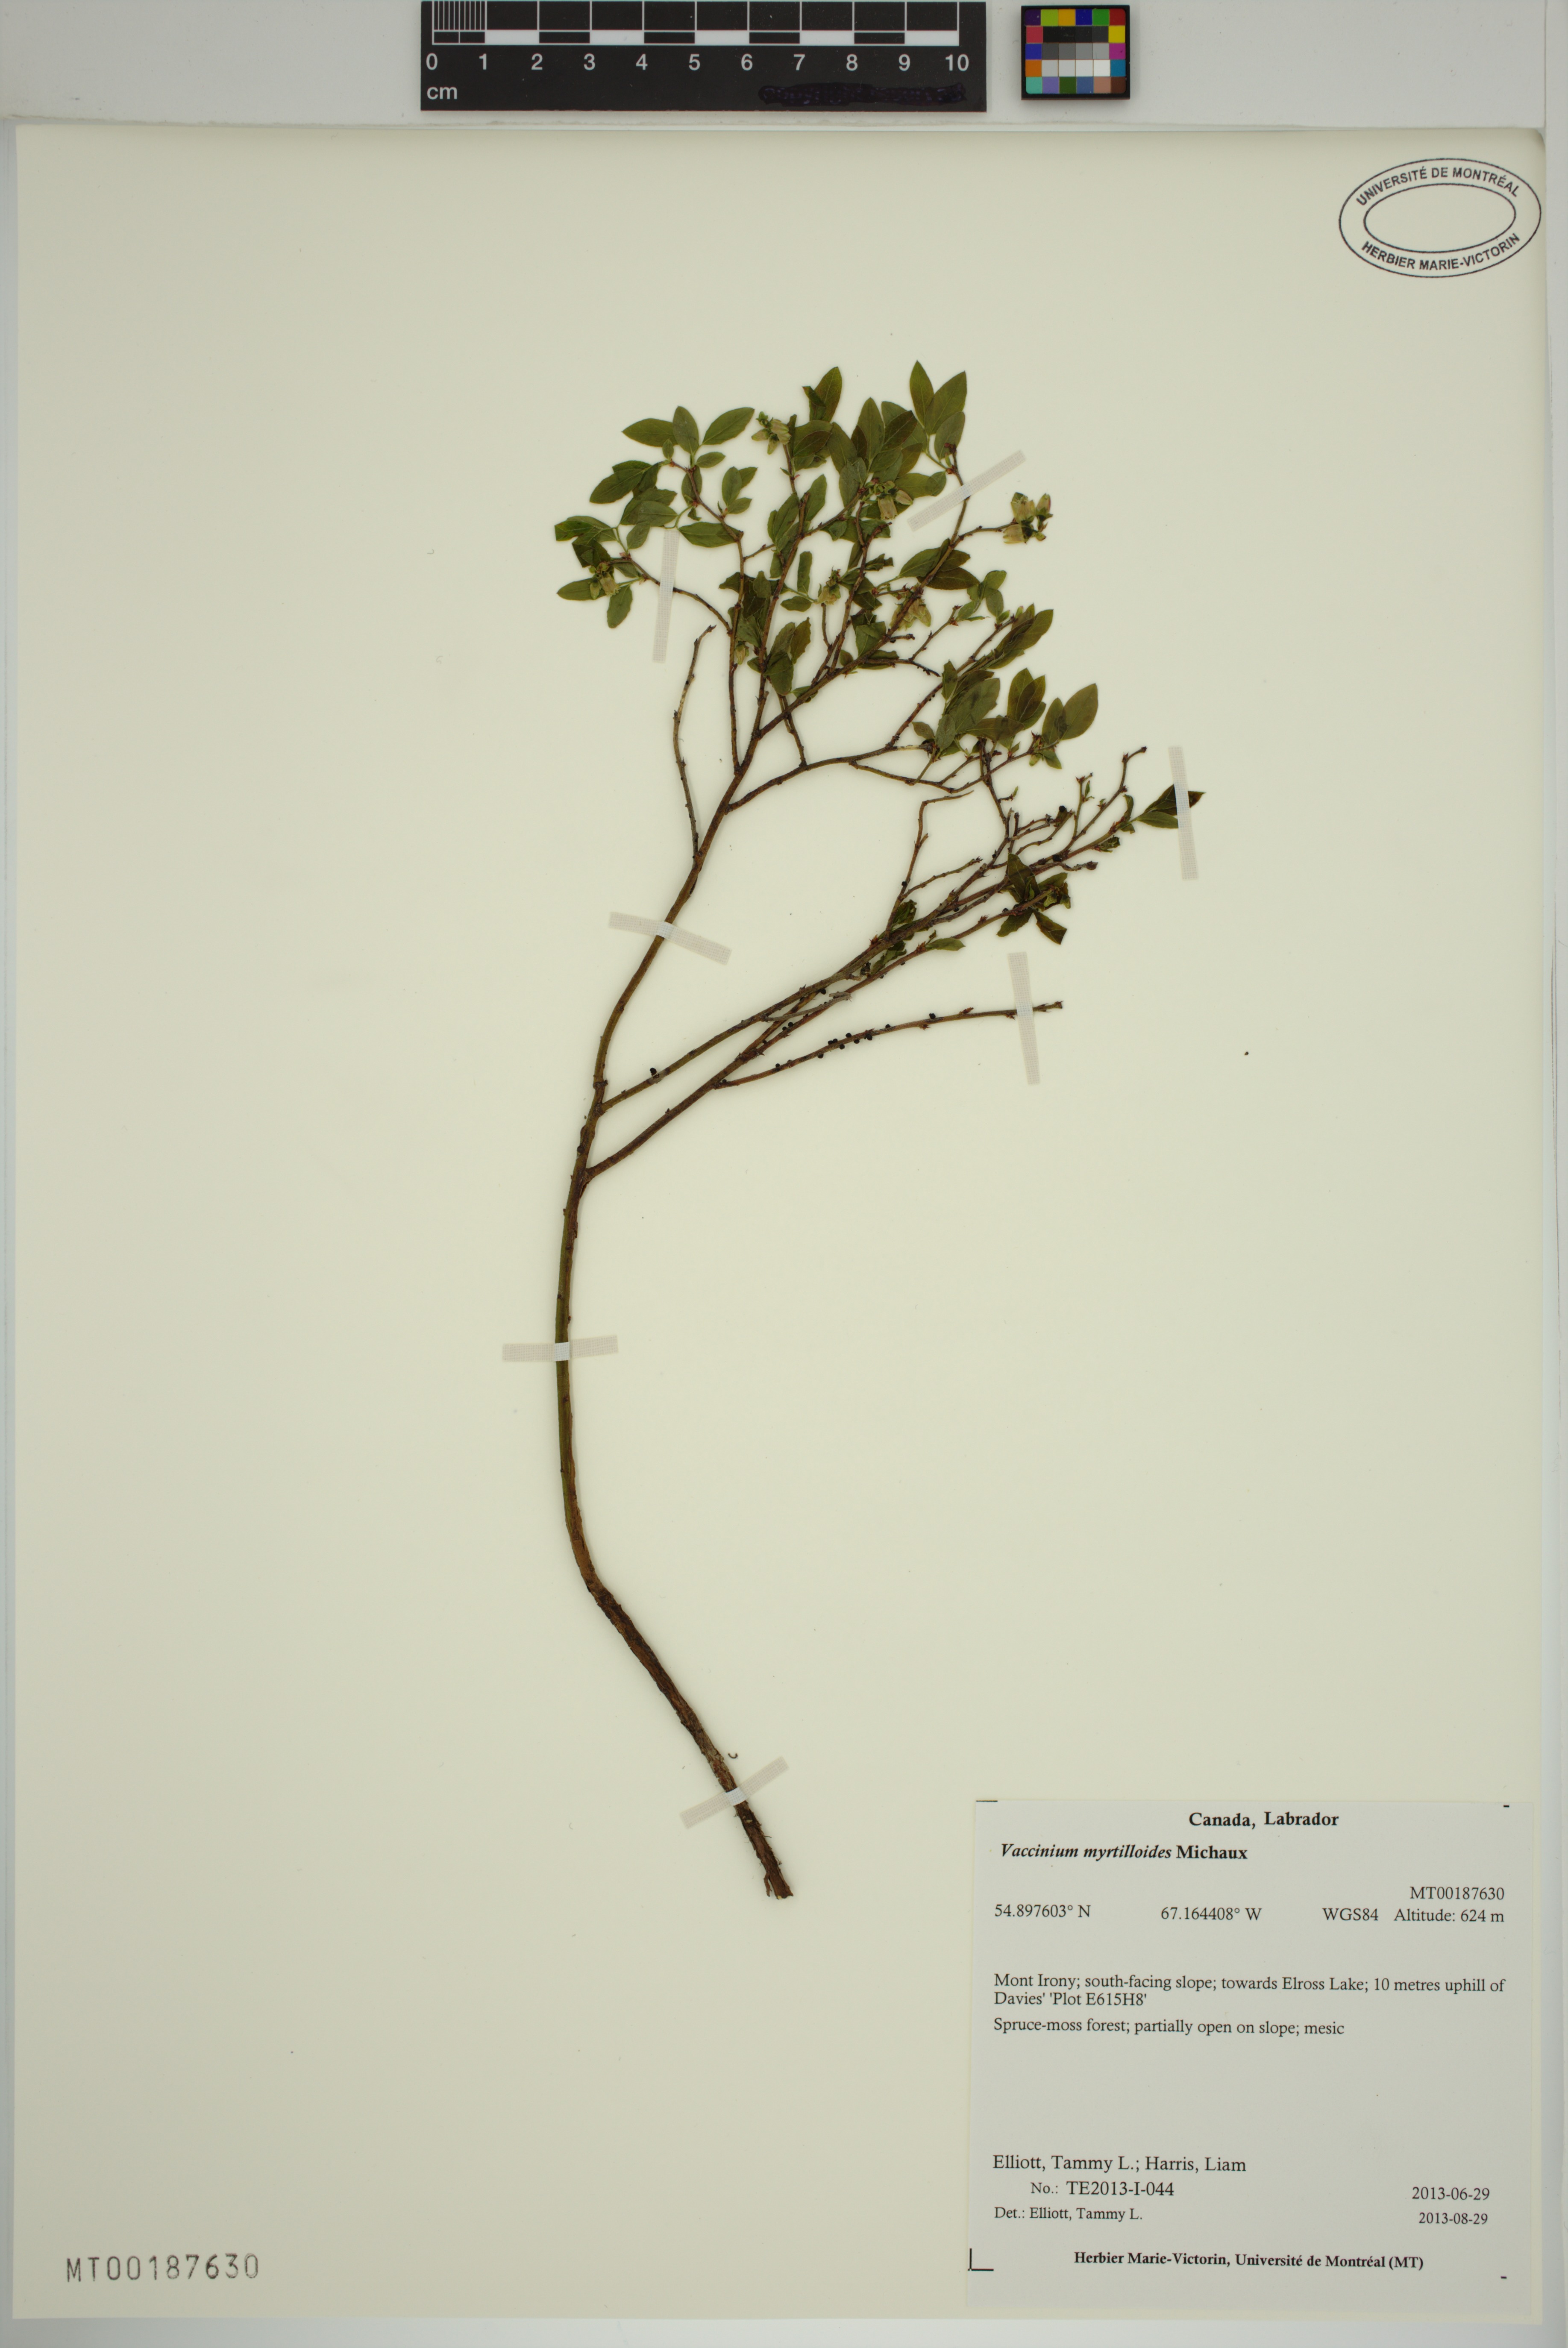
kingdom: Plantae
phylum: Tracheophyta
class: Magnoliopsida
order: Ericales
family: Ericaceae
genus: Vaccinium
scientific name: Vaccinium myrtilloides
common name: Canada blueberry
